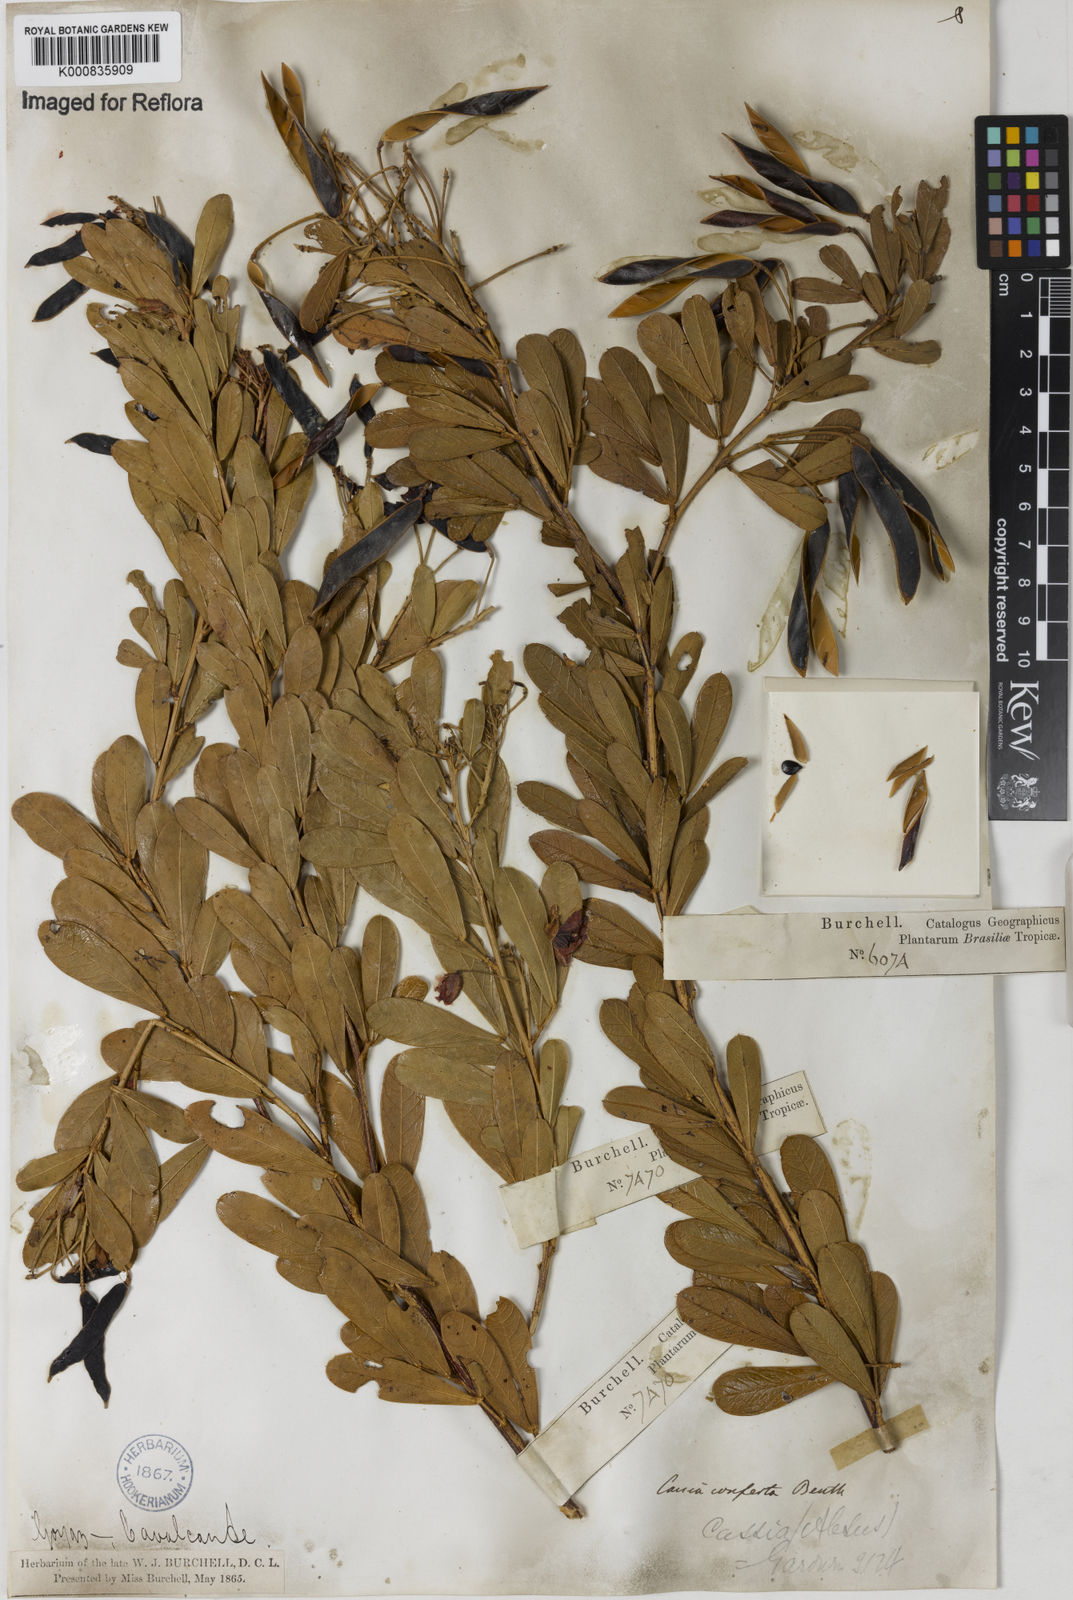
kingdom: Plantae
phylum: Tracheophyta
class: Magnoliopsida
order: Fabales
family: Fabaceae
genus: Chamaecrista
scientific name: Chamaecrista conferta
